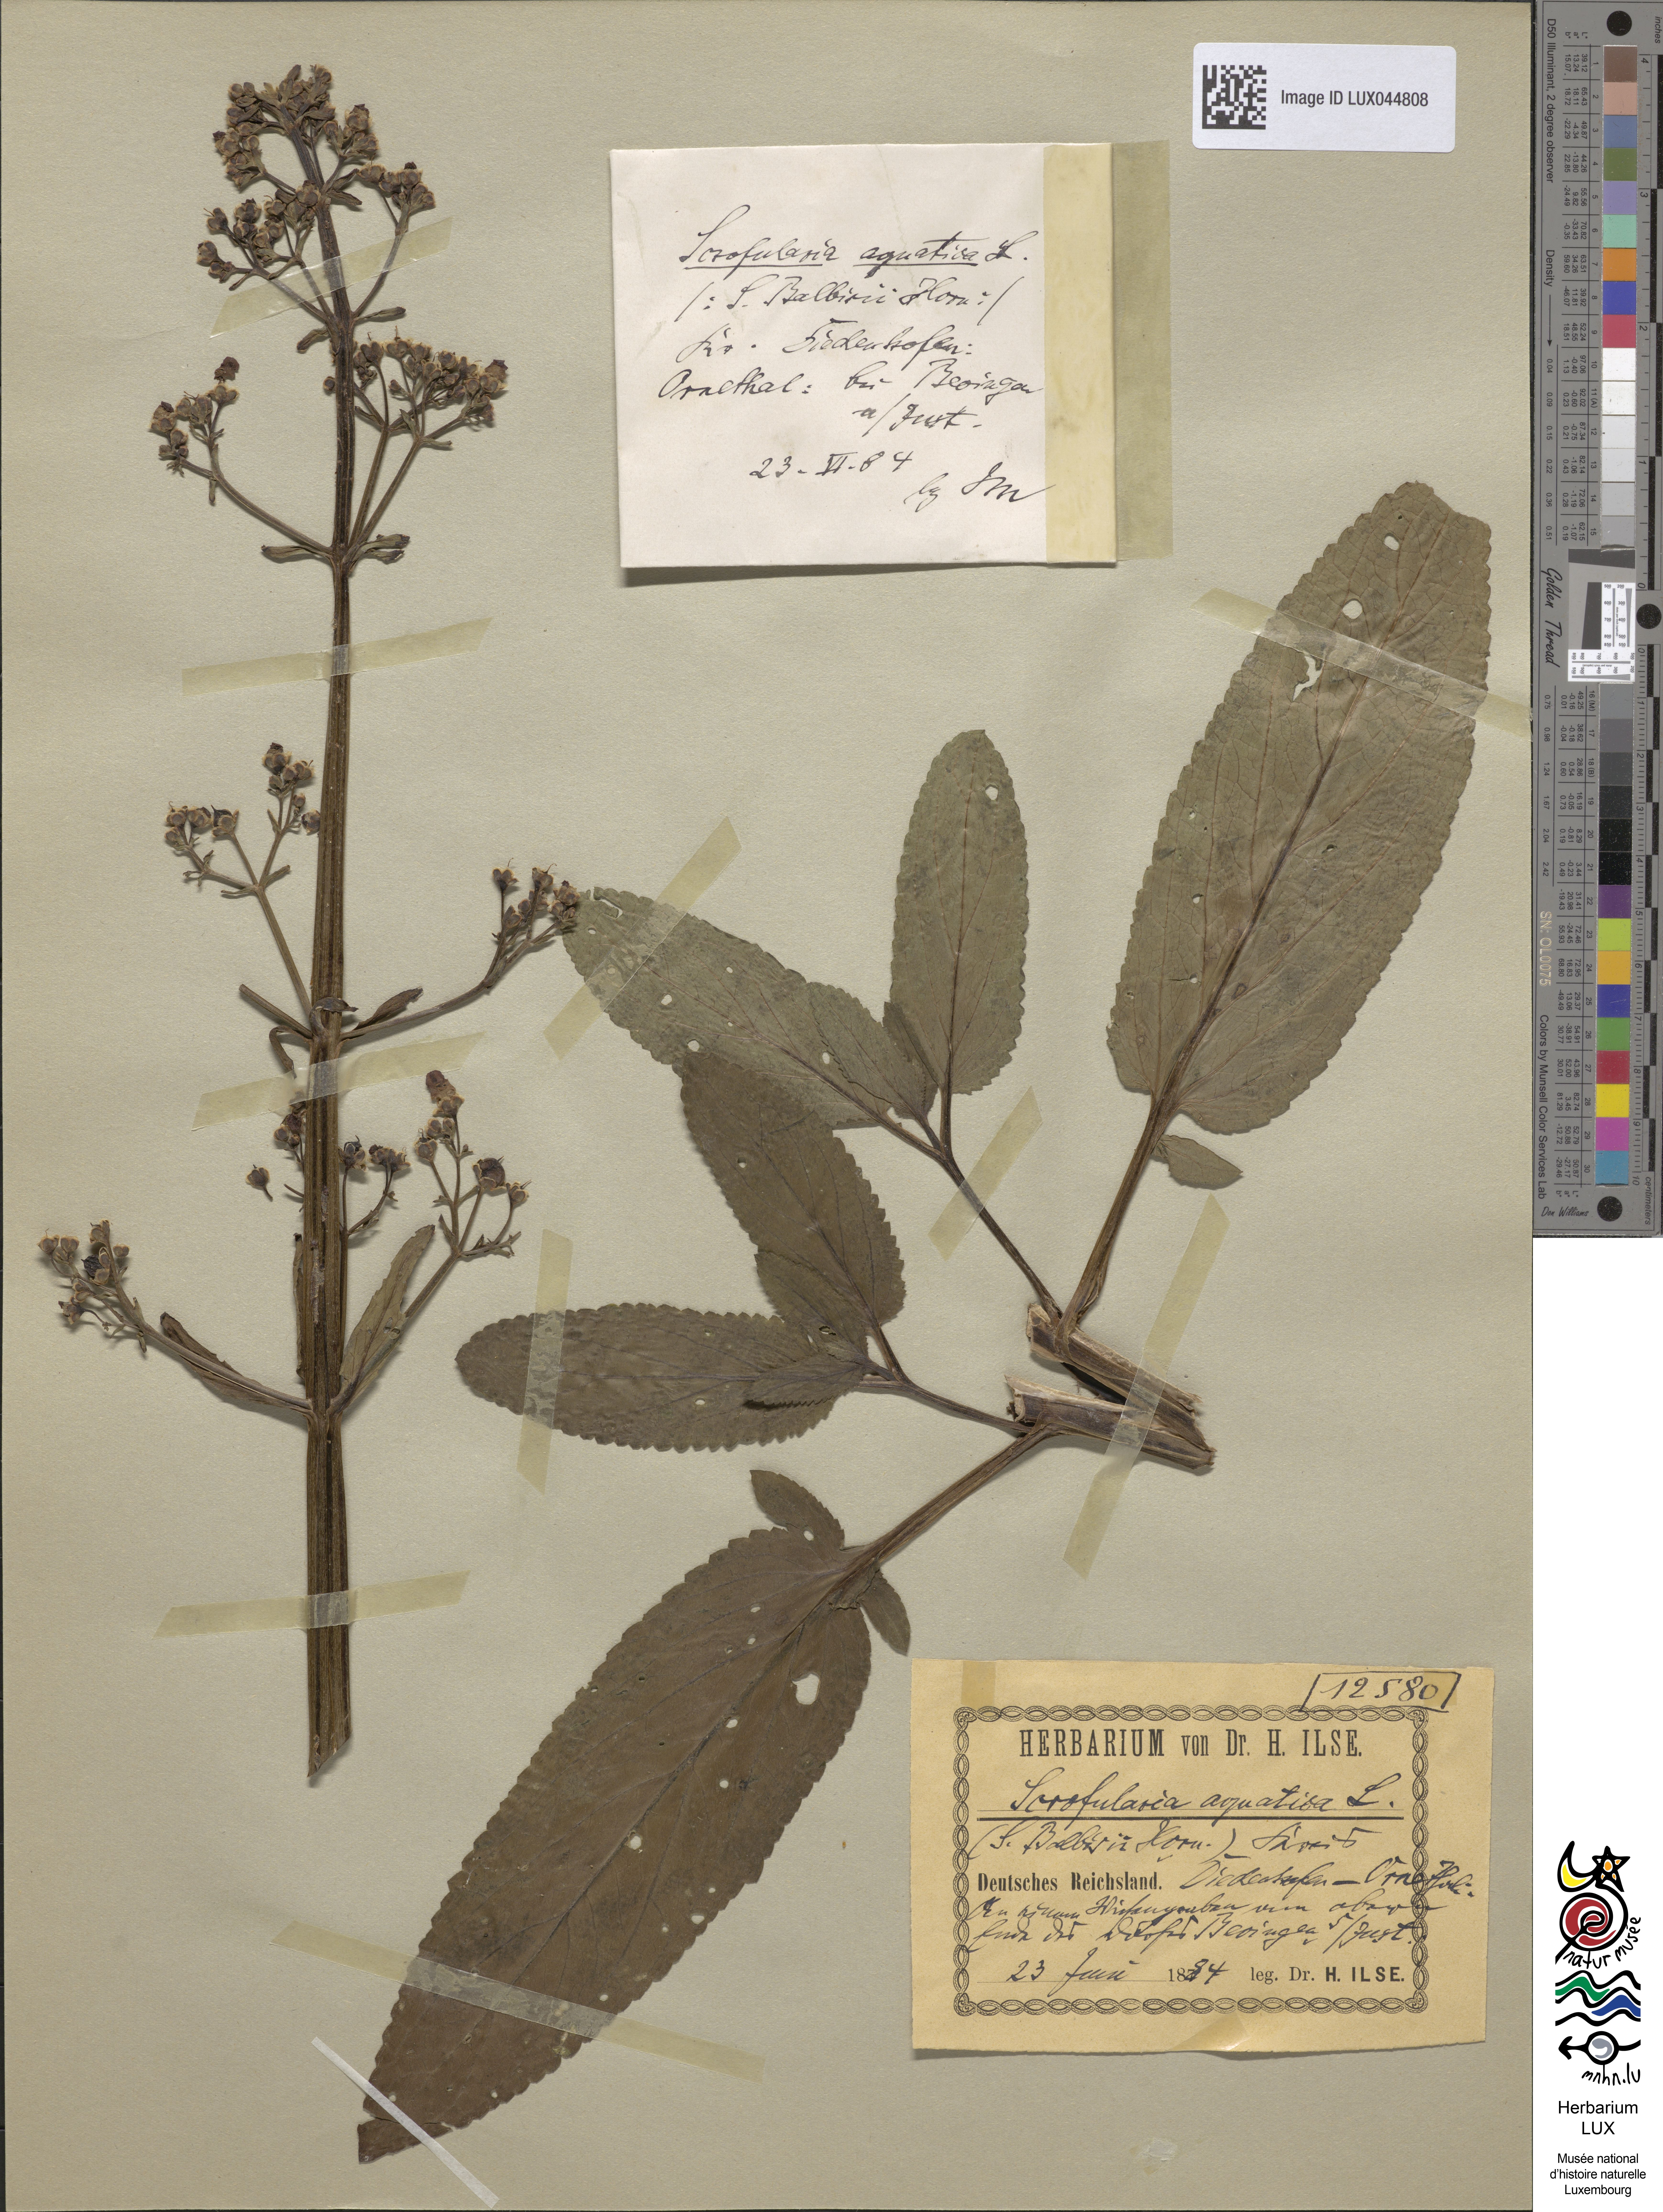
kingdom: Plantae
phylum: Tracheophyta
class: Magnoliopsida
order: Lamiales
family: Scrophulariaceae
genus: Scrophularia
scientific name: Scrophularia auriculata
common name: Water betony
